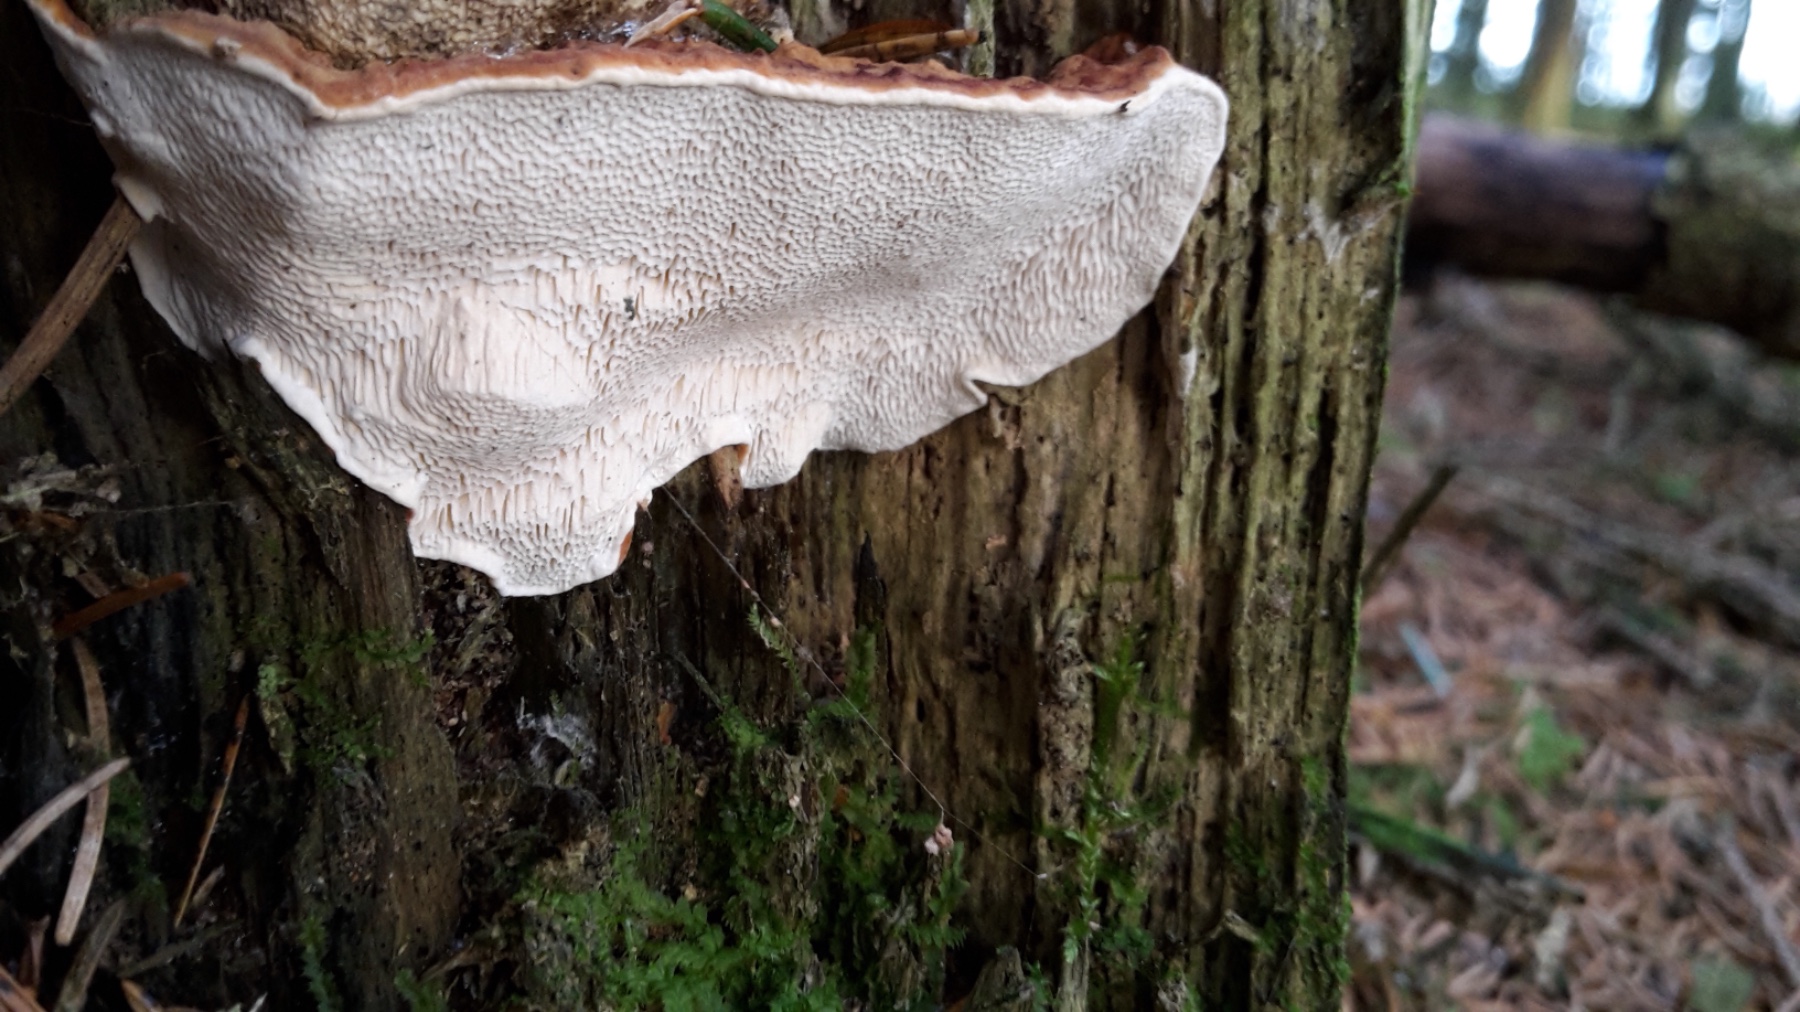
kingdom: Fungi
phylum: Basidiomycota
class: Agaricomycetes
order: Russulales
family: Bondarzewiaceae
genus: Heterobasidion
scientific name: Heterobasidion annosum
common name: almindelig rodfordærver
